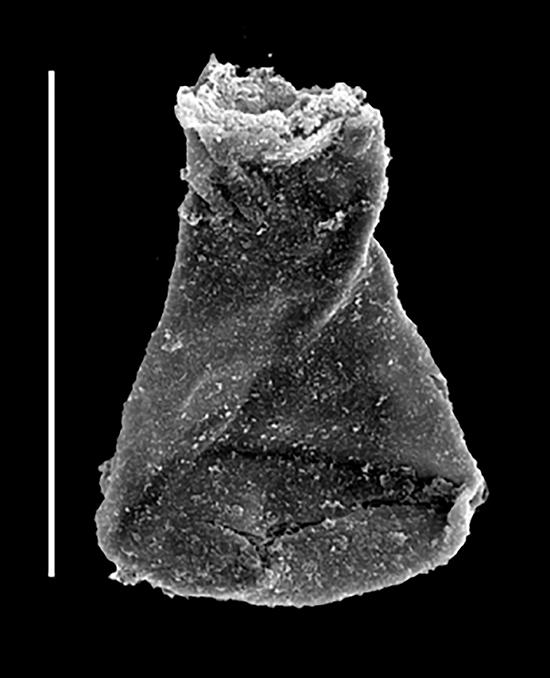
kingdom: Animalia
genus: Euconochitina
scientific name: Euconochitina
